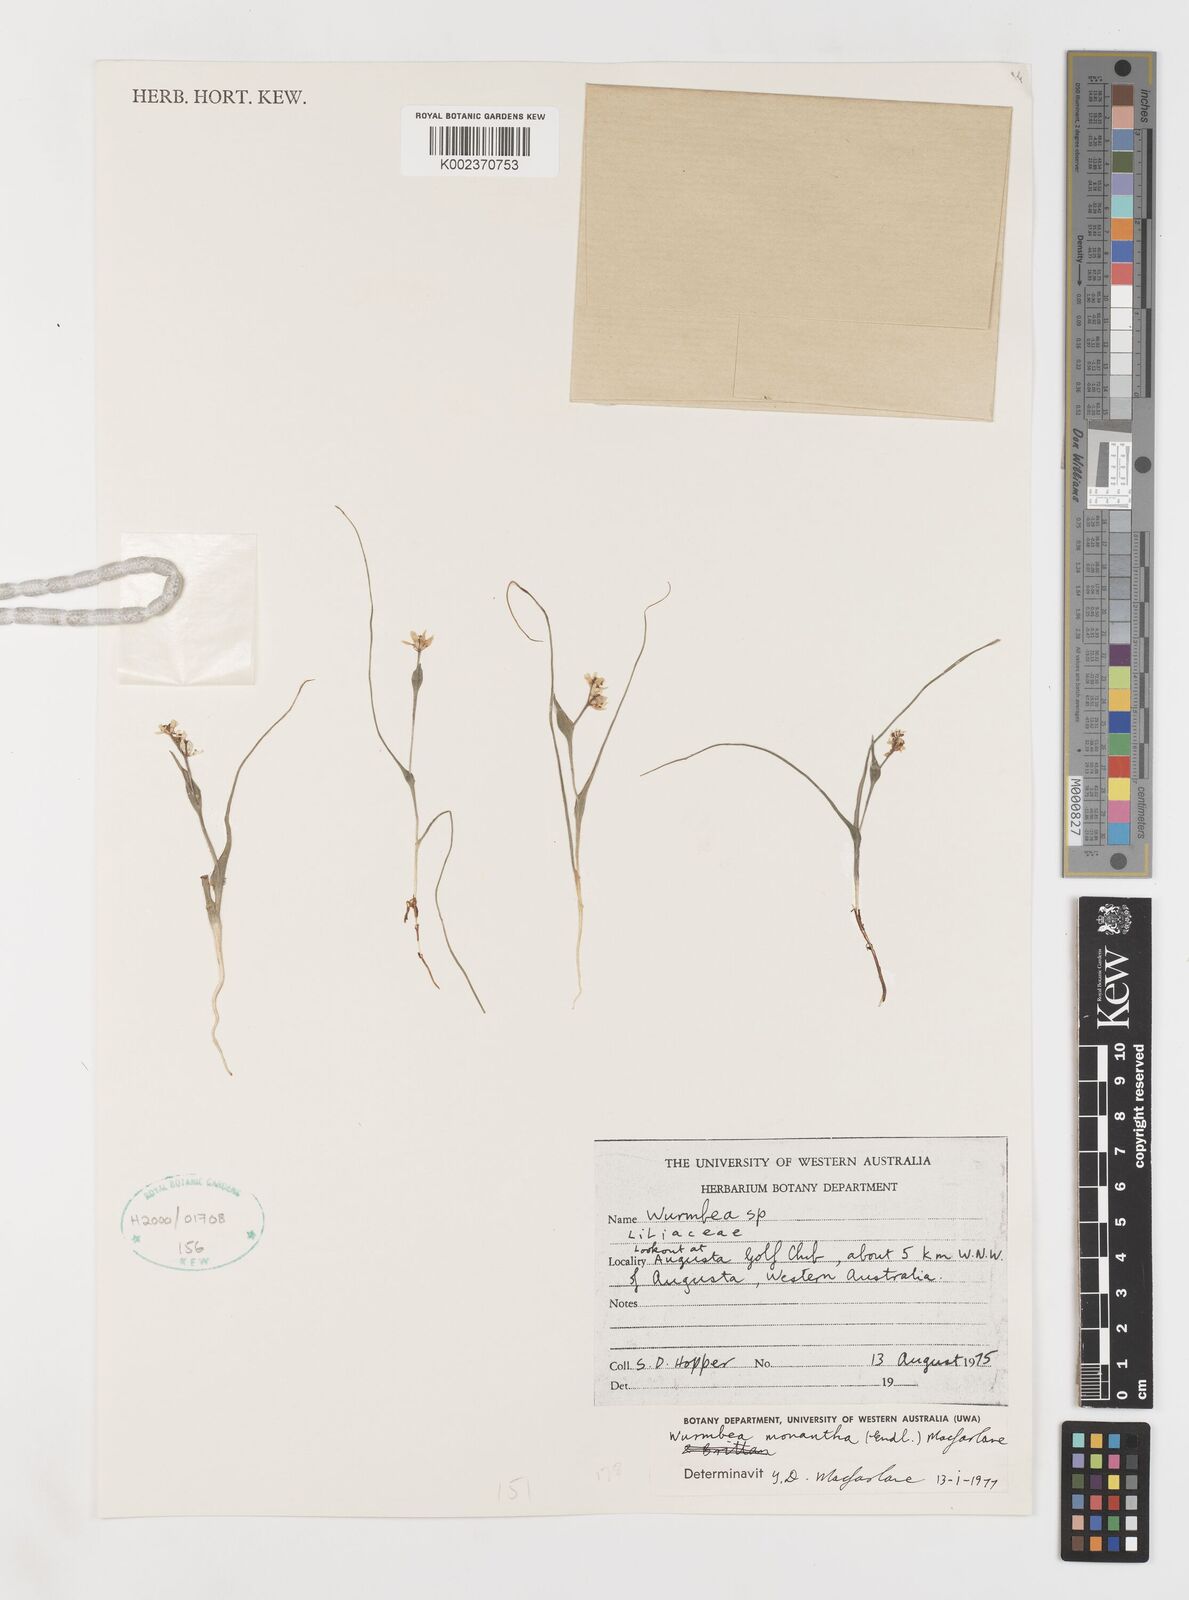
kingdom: Plantae
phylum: Tracheophyta
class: Liliopsida
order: Liliales
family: Colchicaceae
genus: Wurmbea
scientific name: Wurmbea monantha
